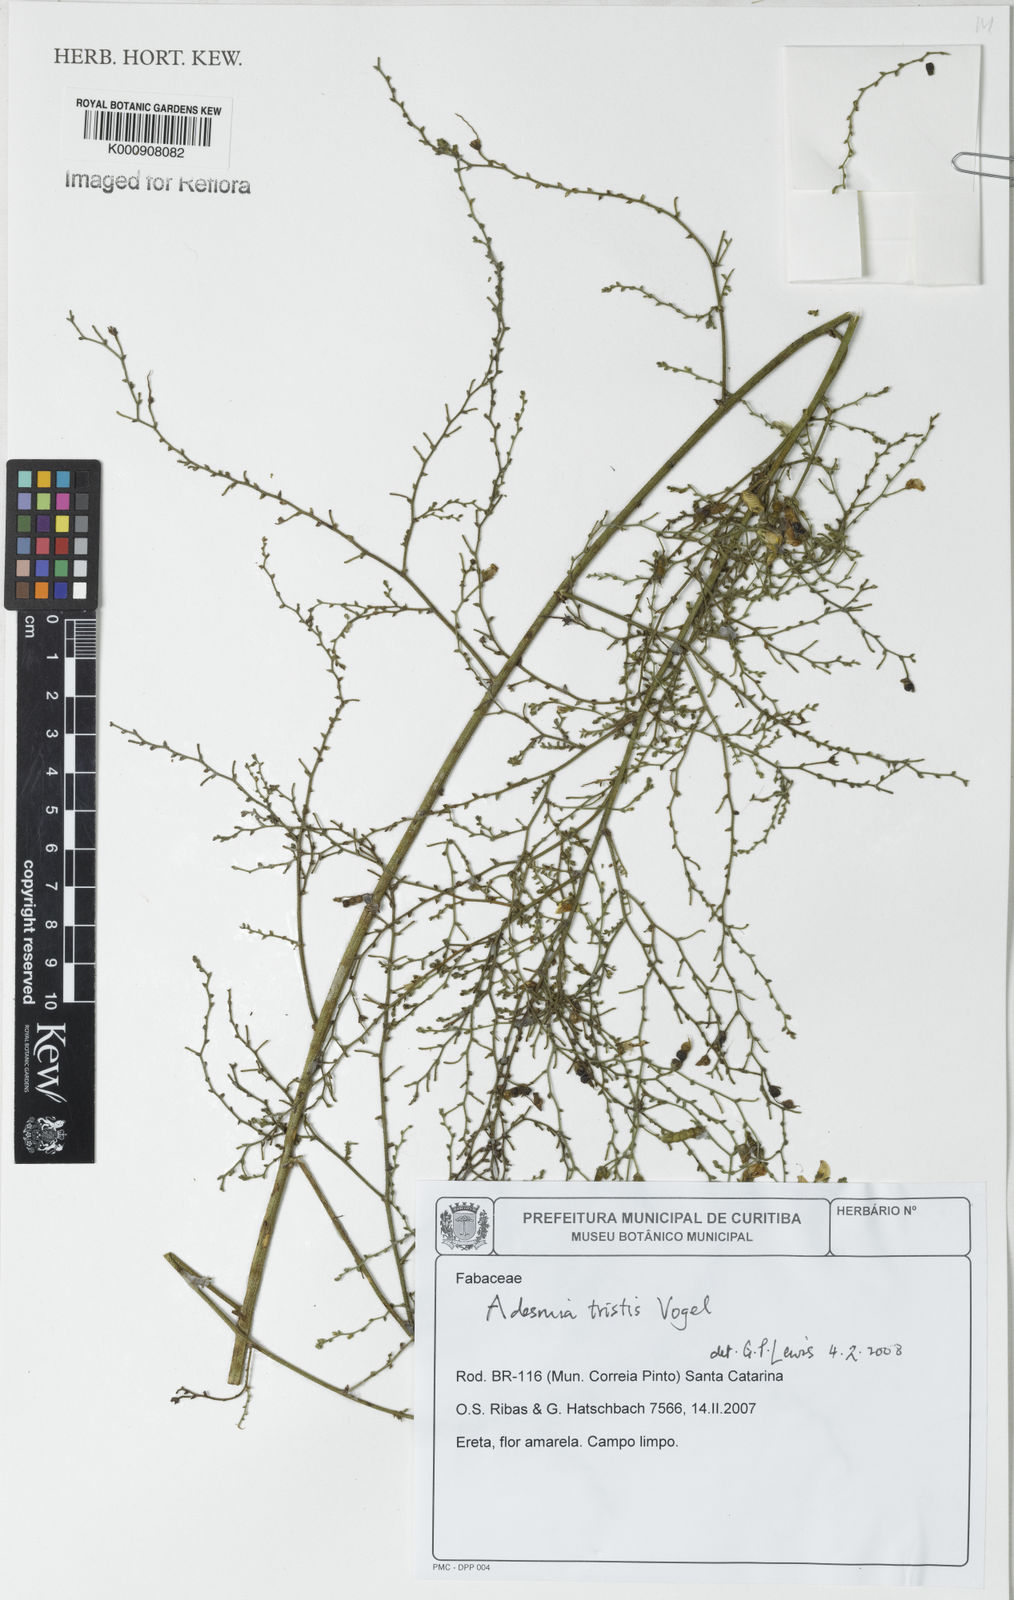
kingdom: Plantae
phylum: Tracheophyta
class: Magnoliopsida
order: Fabales
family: Fabaceae
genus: Adesmia
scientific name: Adesmia tristis
